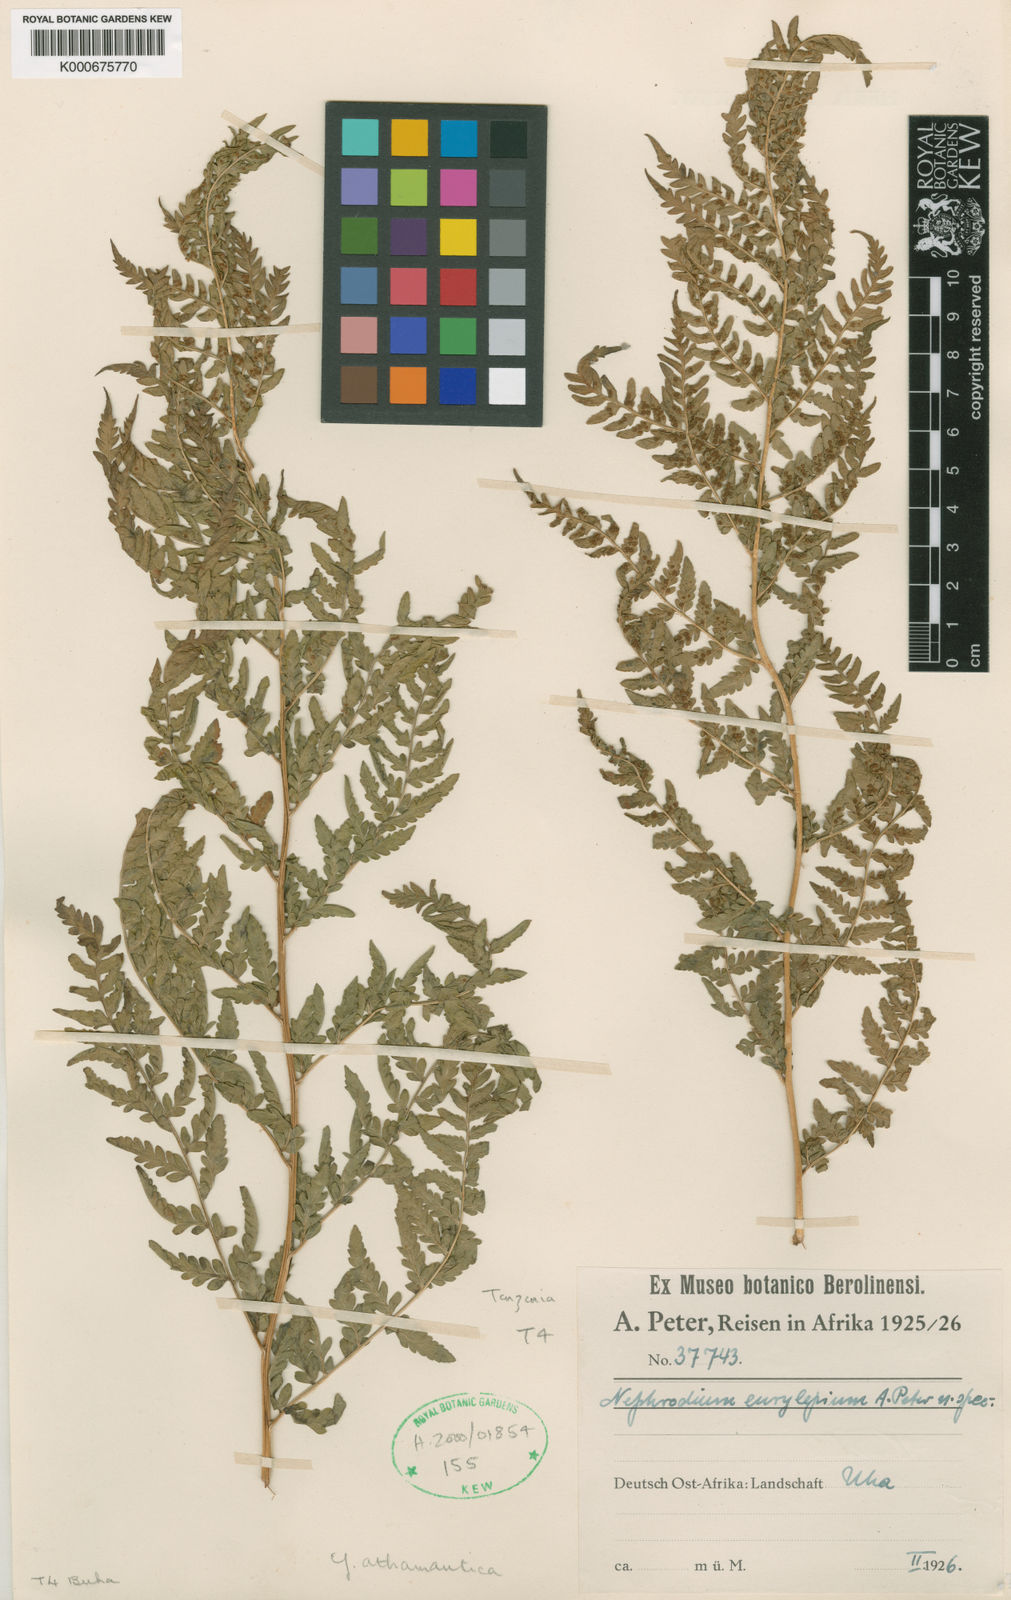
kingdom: Plantae
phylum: Tracheophyta
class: Polypodiopsida
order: Polypodiales
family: Dryopteridaceae
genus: Dryopteris
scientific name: Dryopteris athamantica
